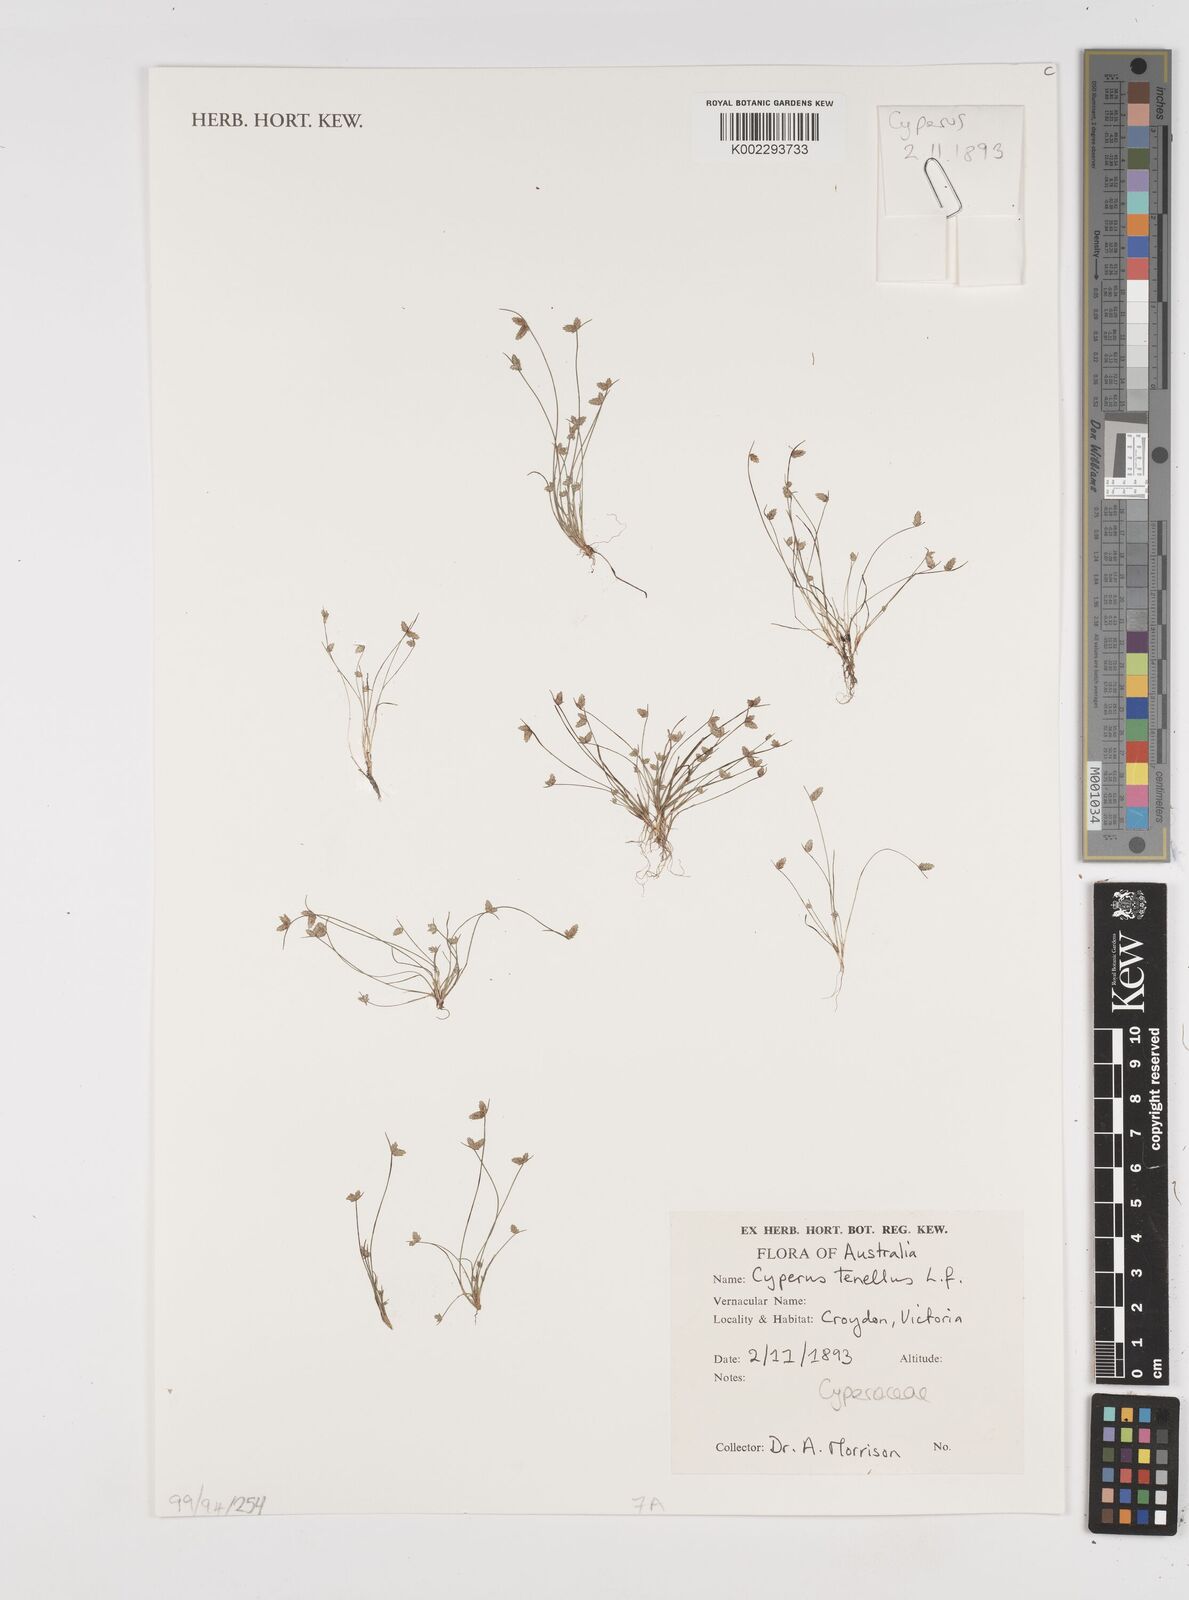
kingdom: Plantae
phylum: Tracheophyta
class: Liliopsida
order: Poales
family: Cyperaceae
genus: Isolepis
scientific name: Isolepis levynsiana
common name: Sedge
